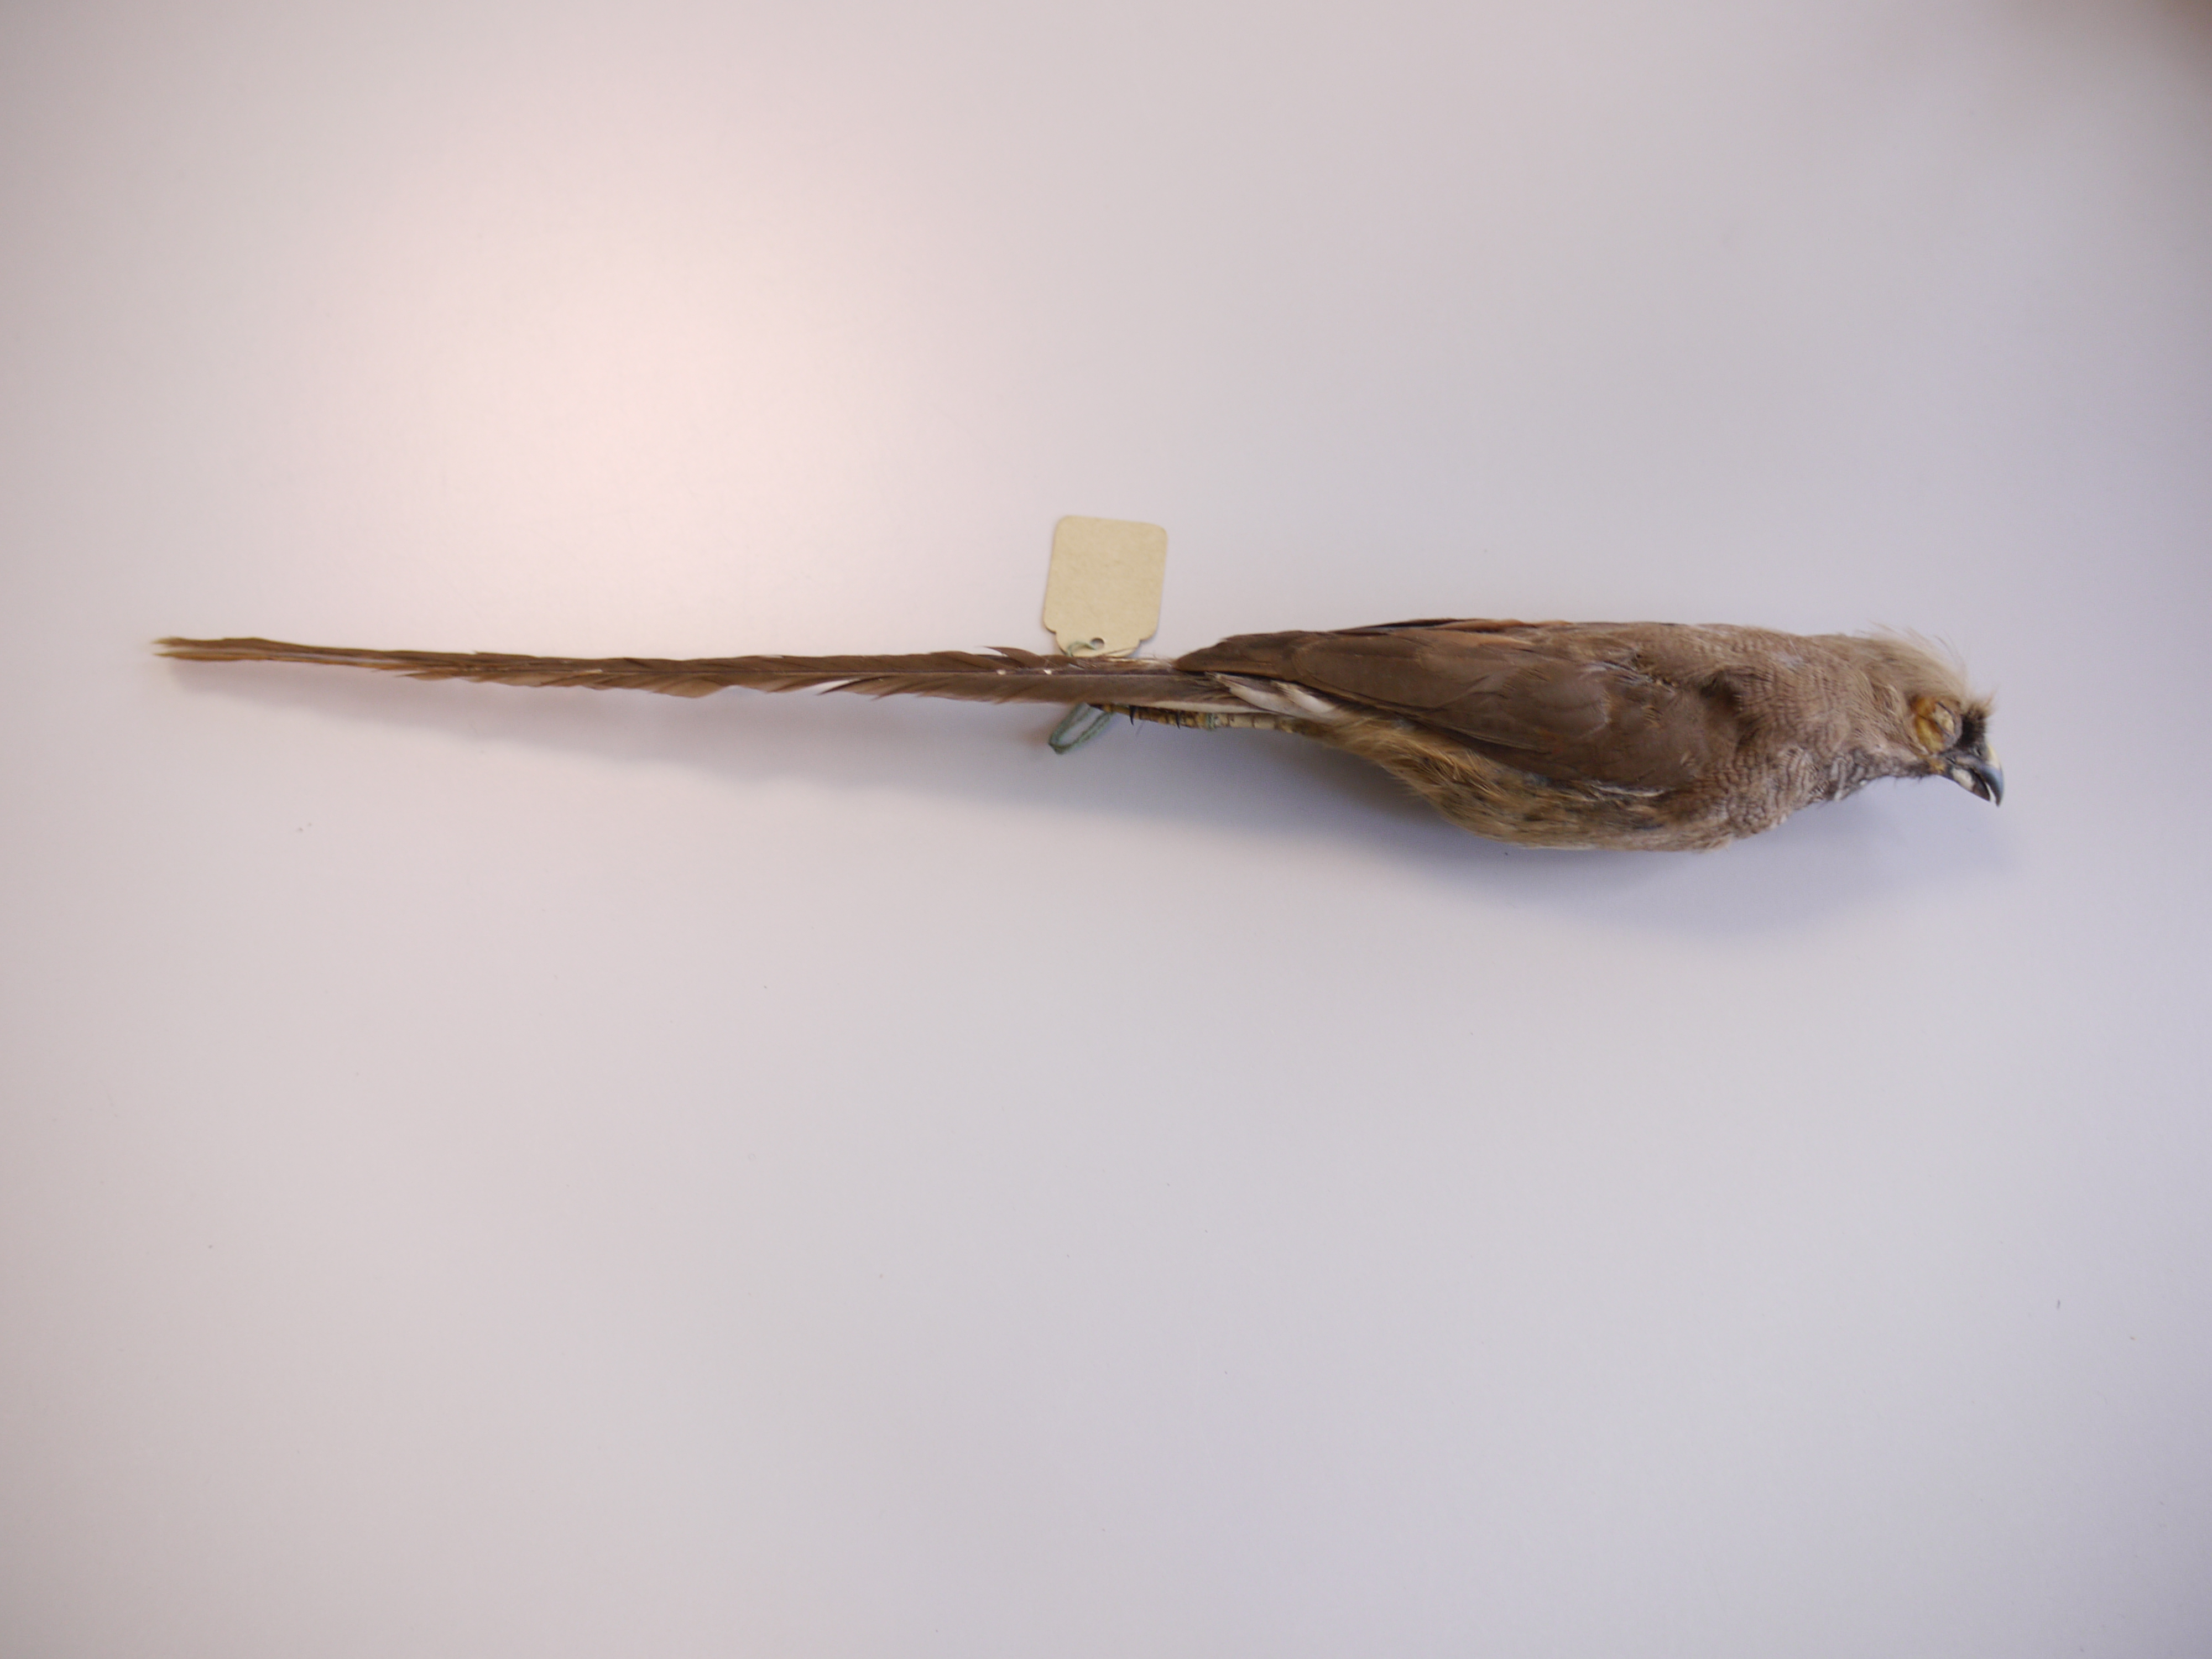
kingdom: Animalia
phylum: Chordata
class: Aves
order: Coliiformes
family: Coliidae
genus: Colius
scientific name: Colius striatus
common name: Speckled mousebird
